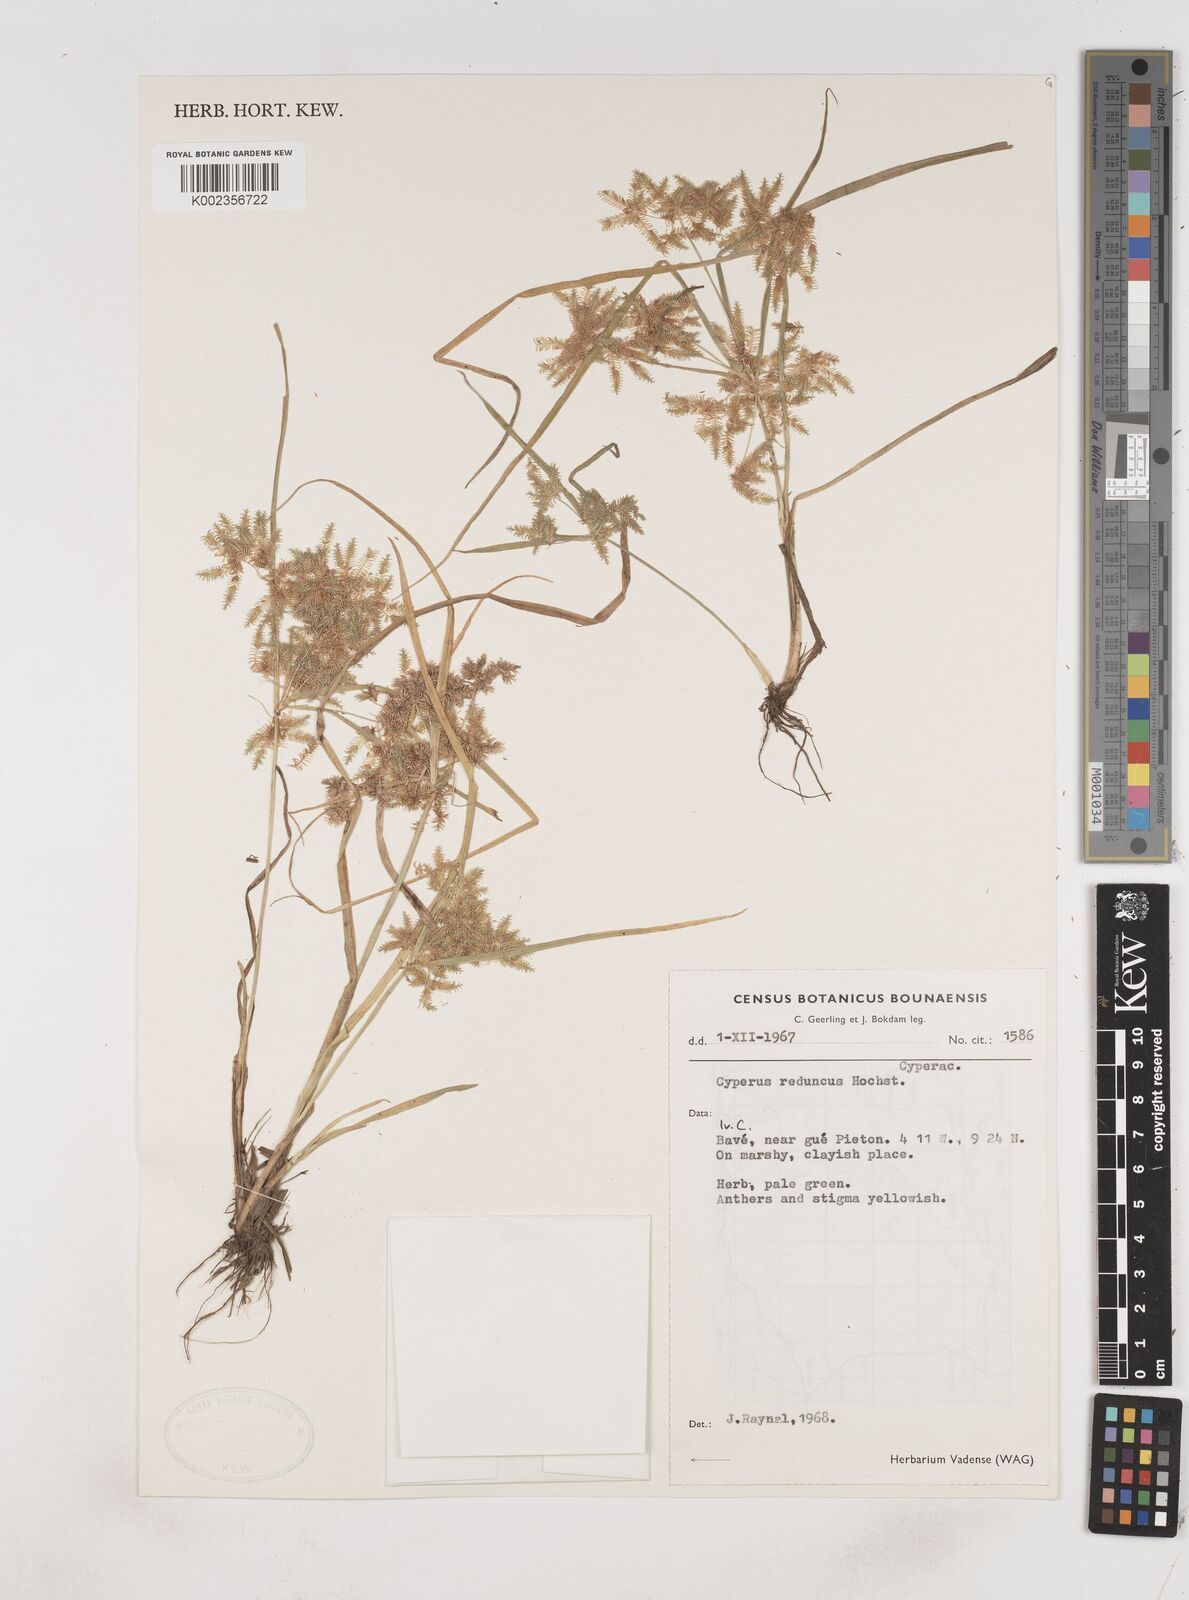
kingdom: Plantae
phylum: Tracheophyta
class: Liliopsida
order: Poales
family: Cyperaceae
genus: Cyperus
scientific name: Cyperus reduncus
